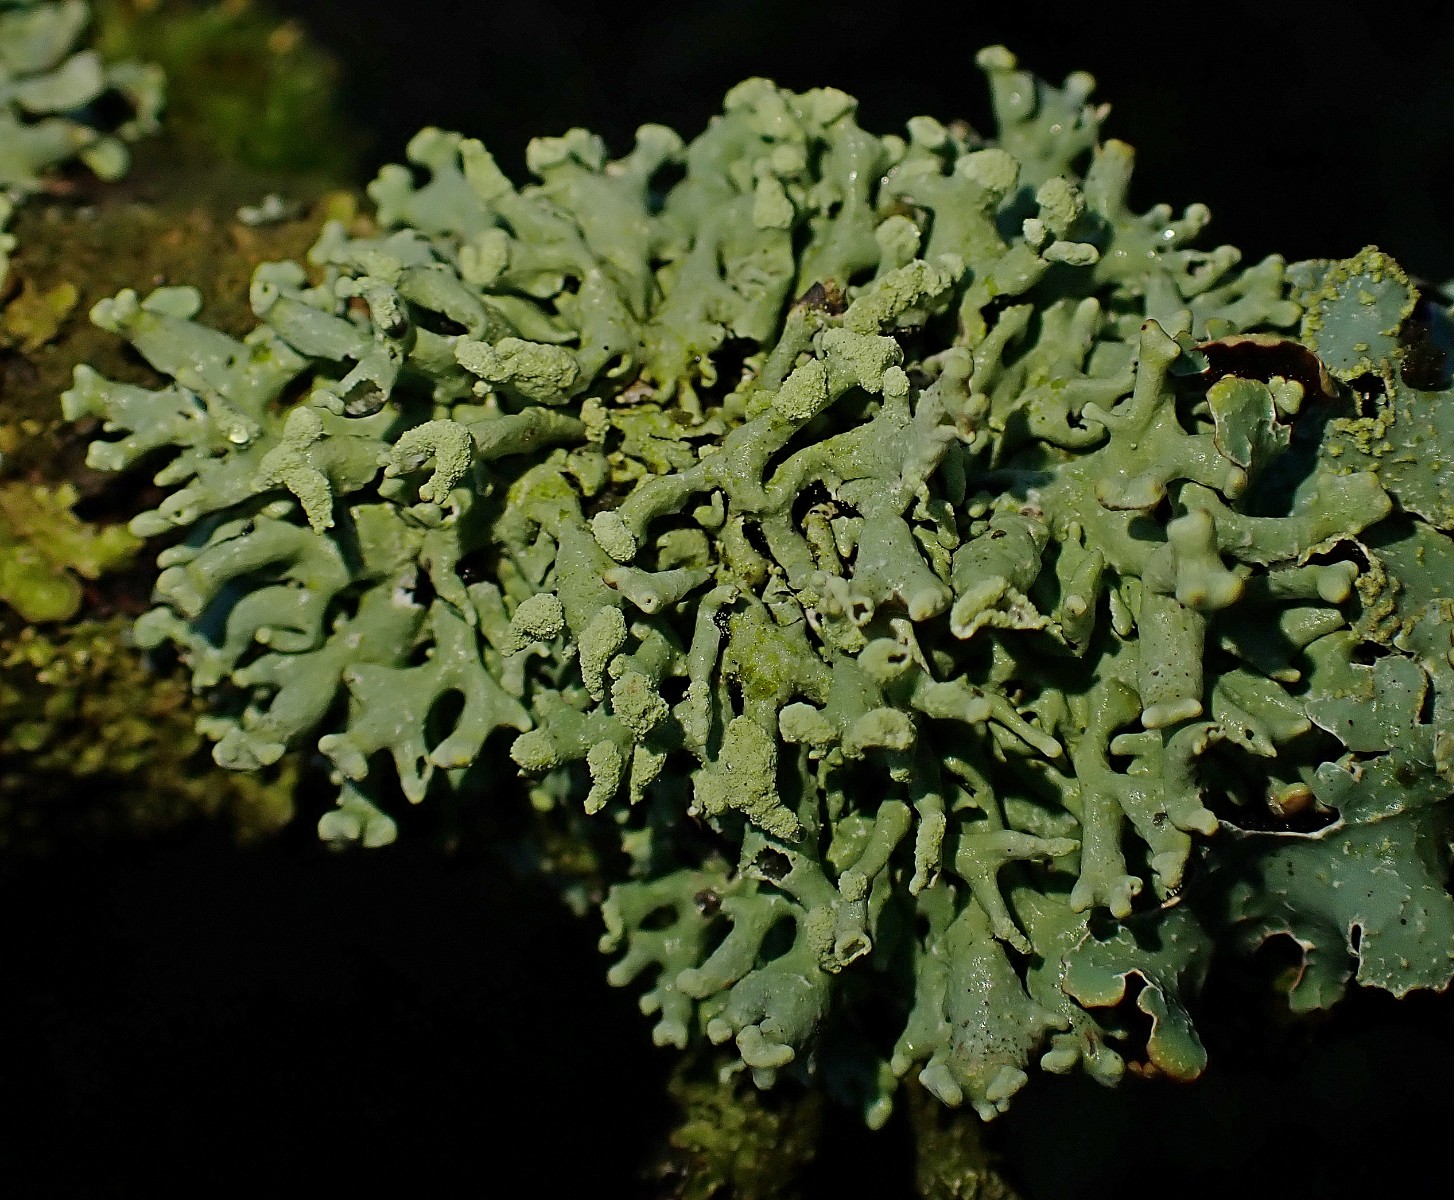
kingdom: Fungi
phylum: Ascomycota
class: Lecanoromycetes
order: Lecanorales
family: Parmeliaceae
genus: Hypogymnia
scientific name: Hypogymnia tubulosa
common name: finger-kvistlav
